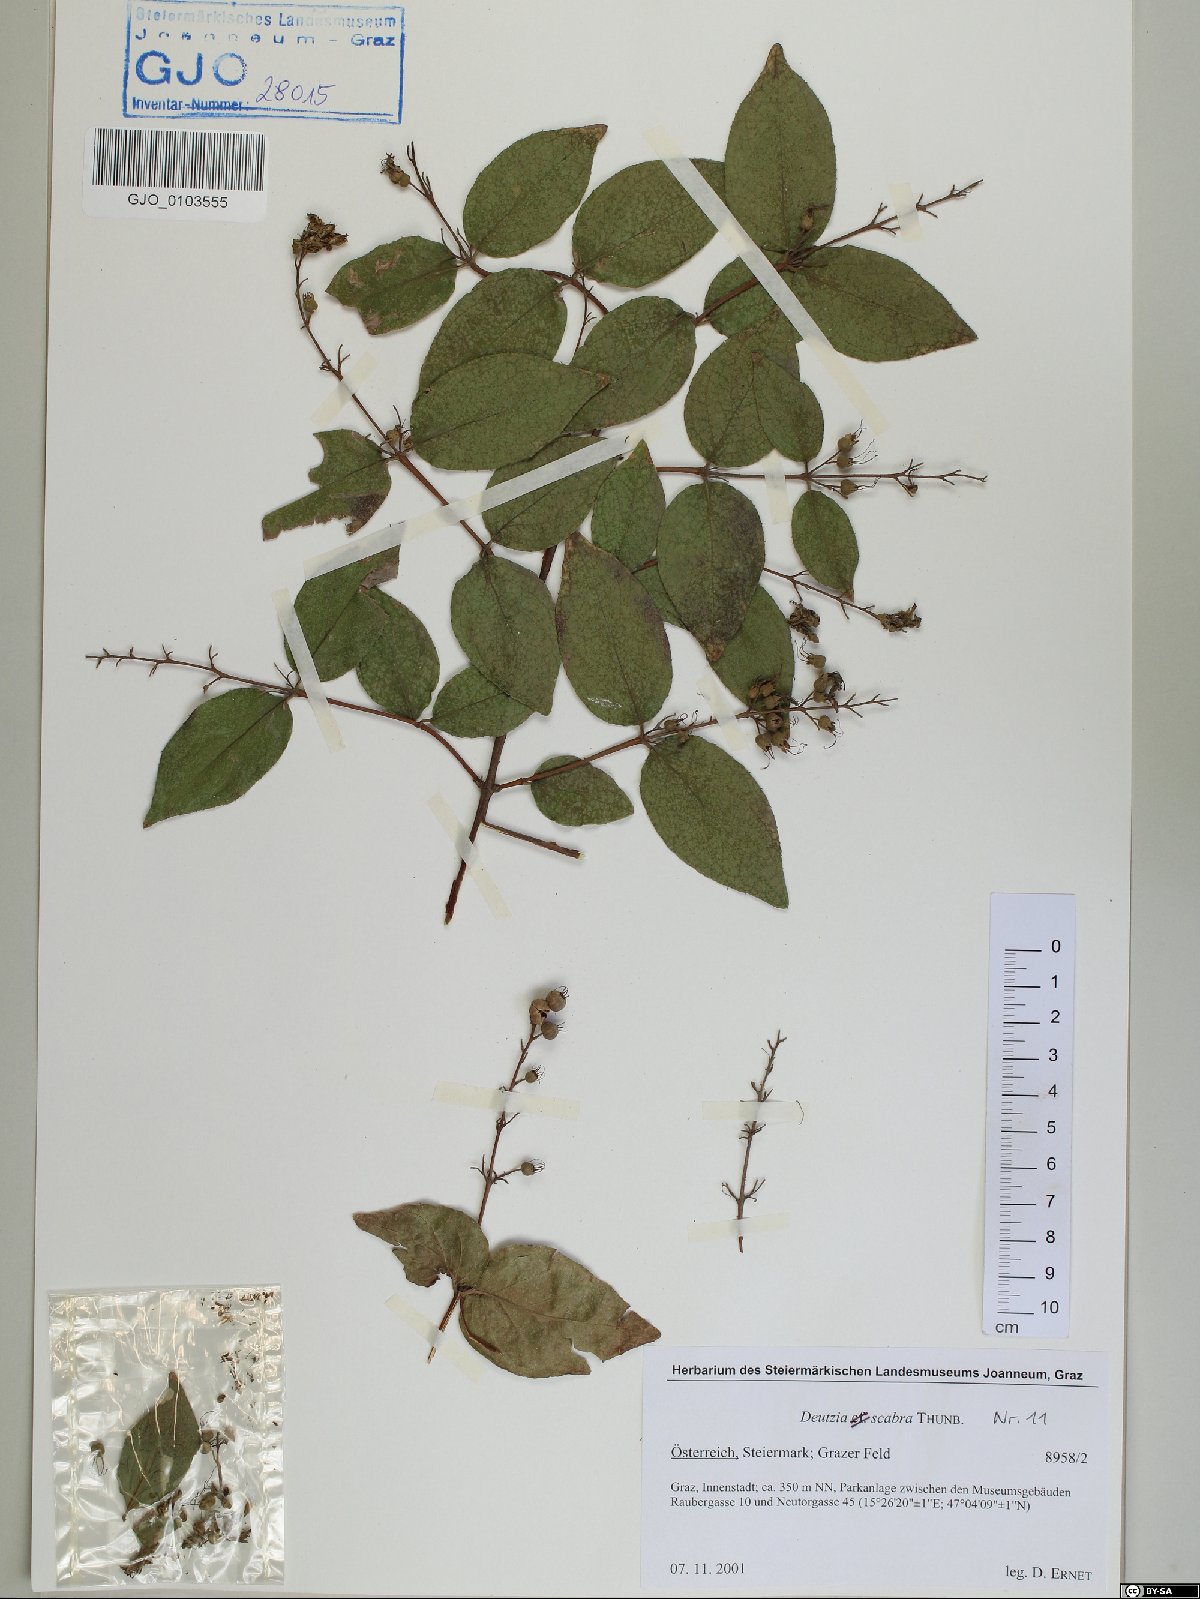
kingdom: Plantae
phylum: Tracheophyta
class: Magnoliopsida
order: Cornales
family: Hydrangeaceae
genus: Deutzia
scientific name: Deutzia scabra
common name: Deutzia
